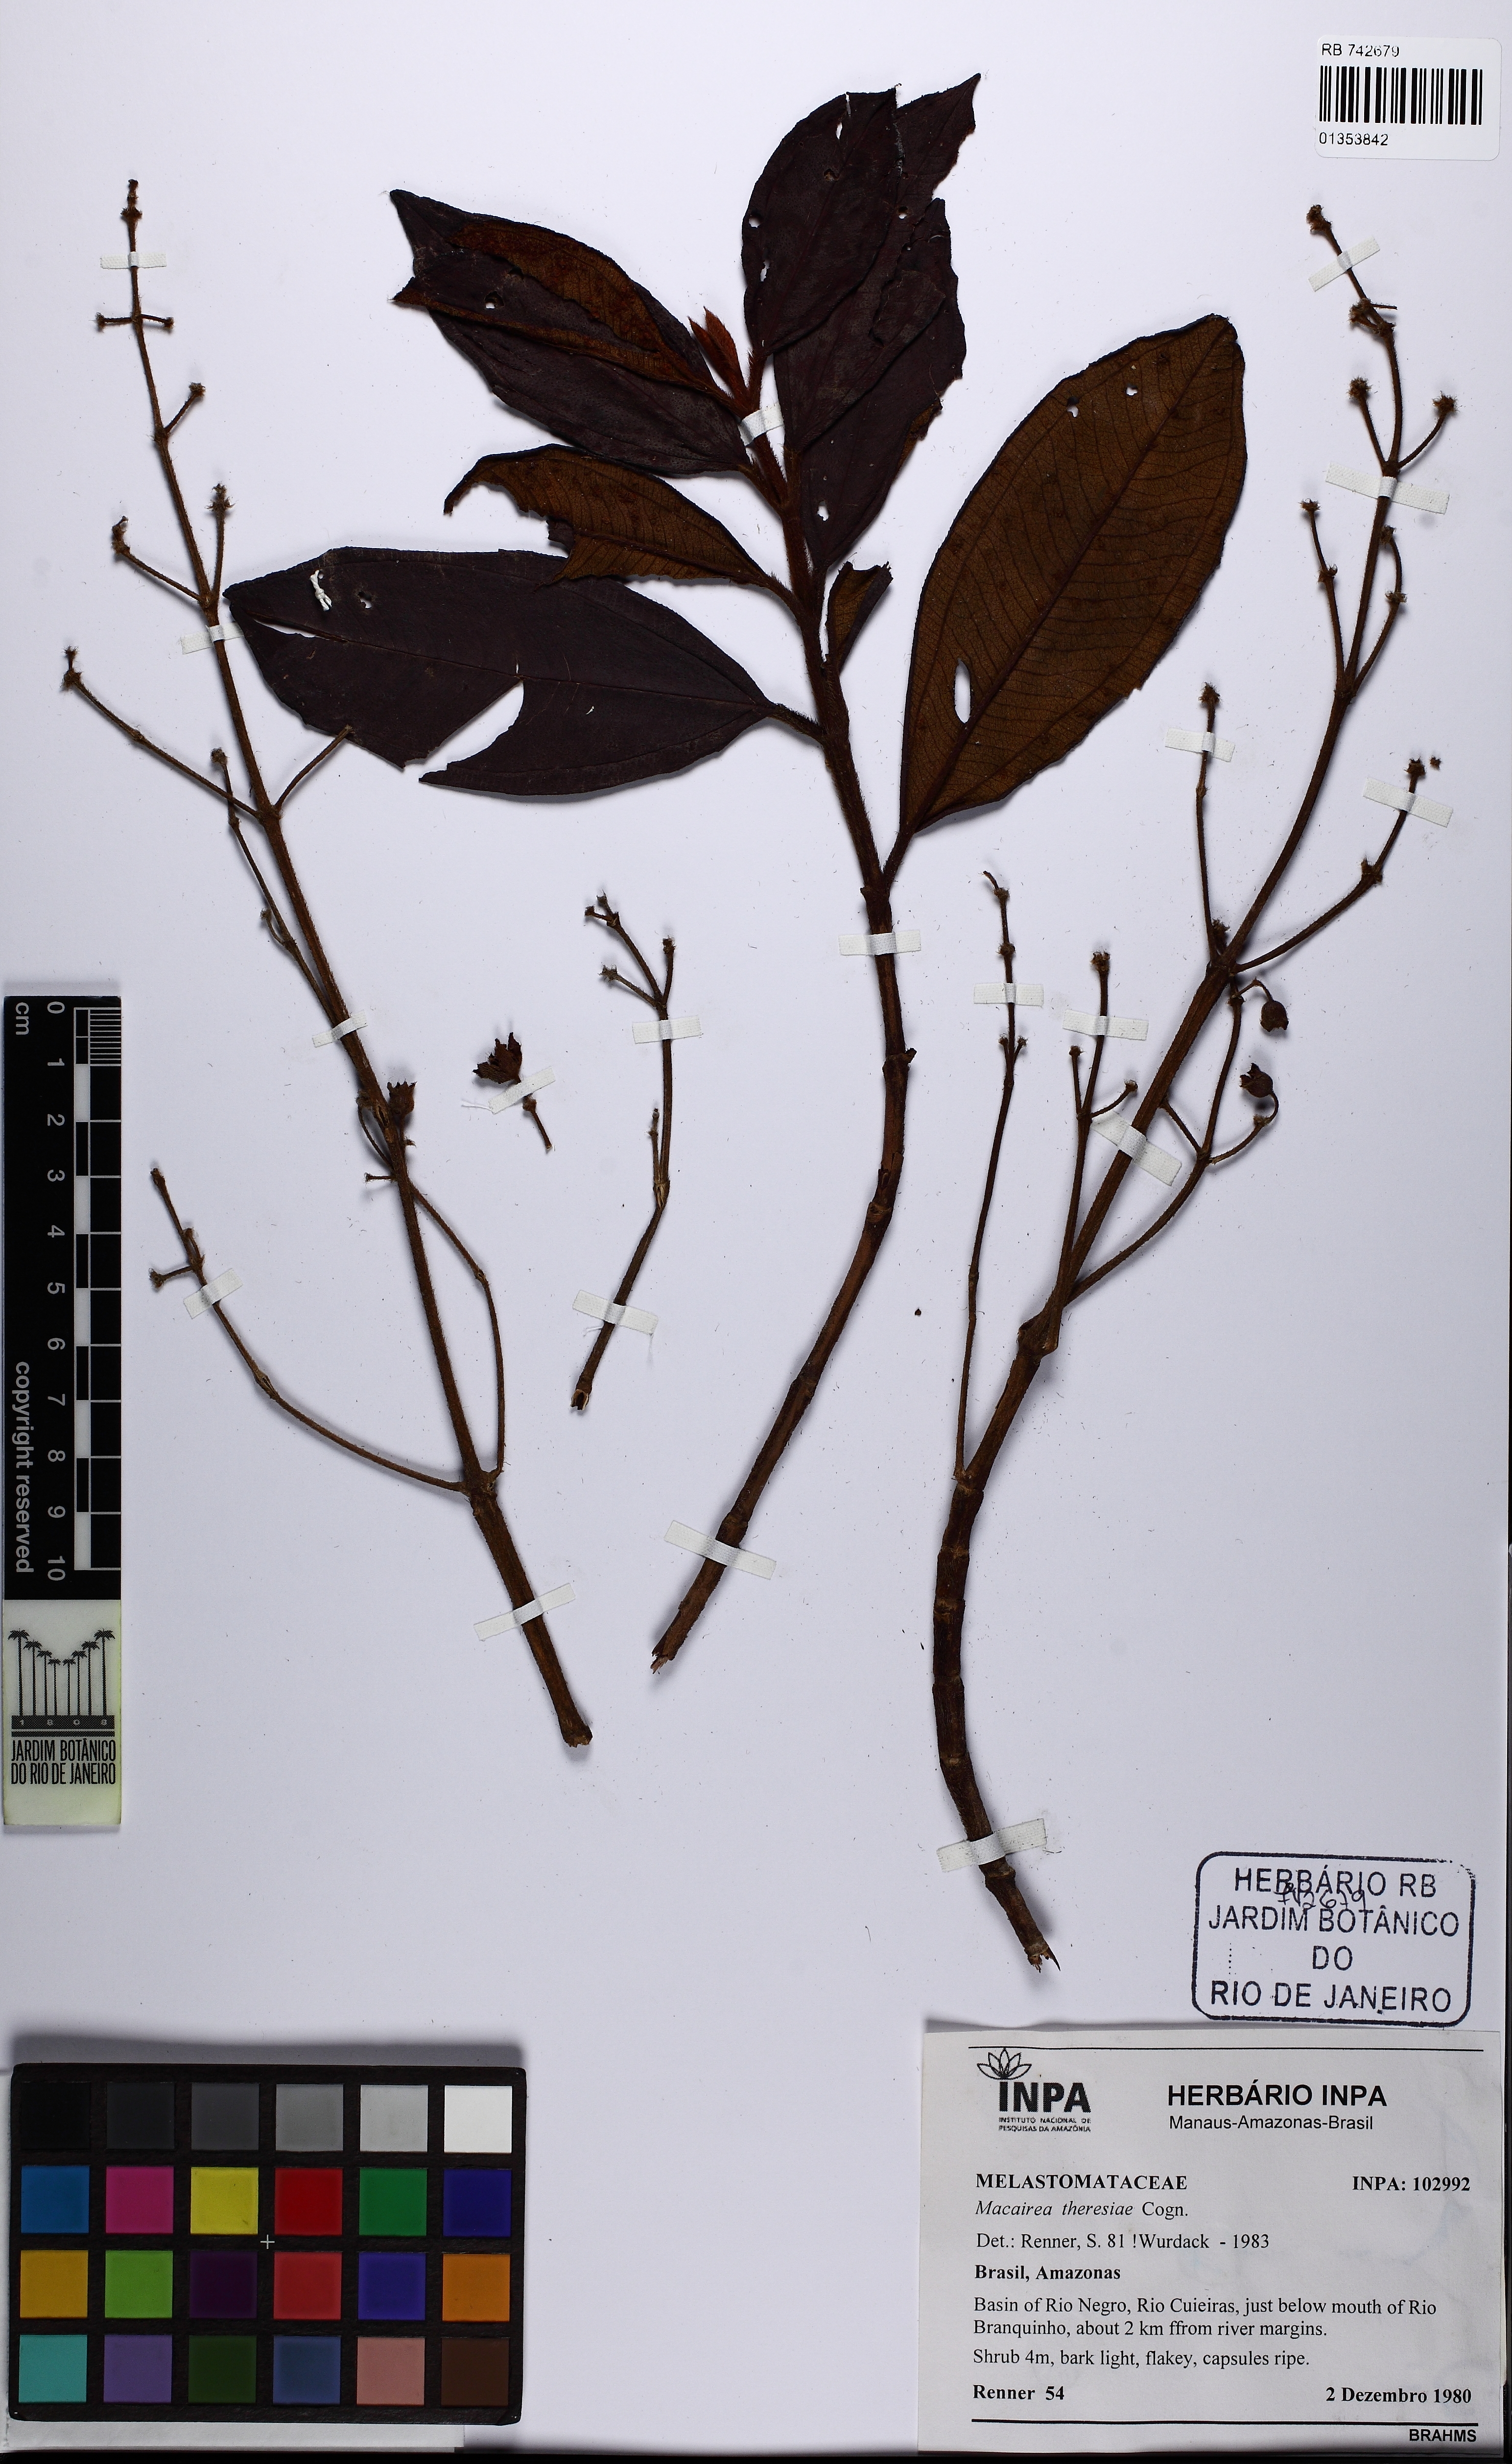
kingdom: Plantae
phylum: Tracheophyta
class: Magnoliopsida
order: Myrtales
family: Melastomataceae
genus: Macairea
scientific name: Macairea theresiae
